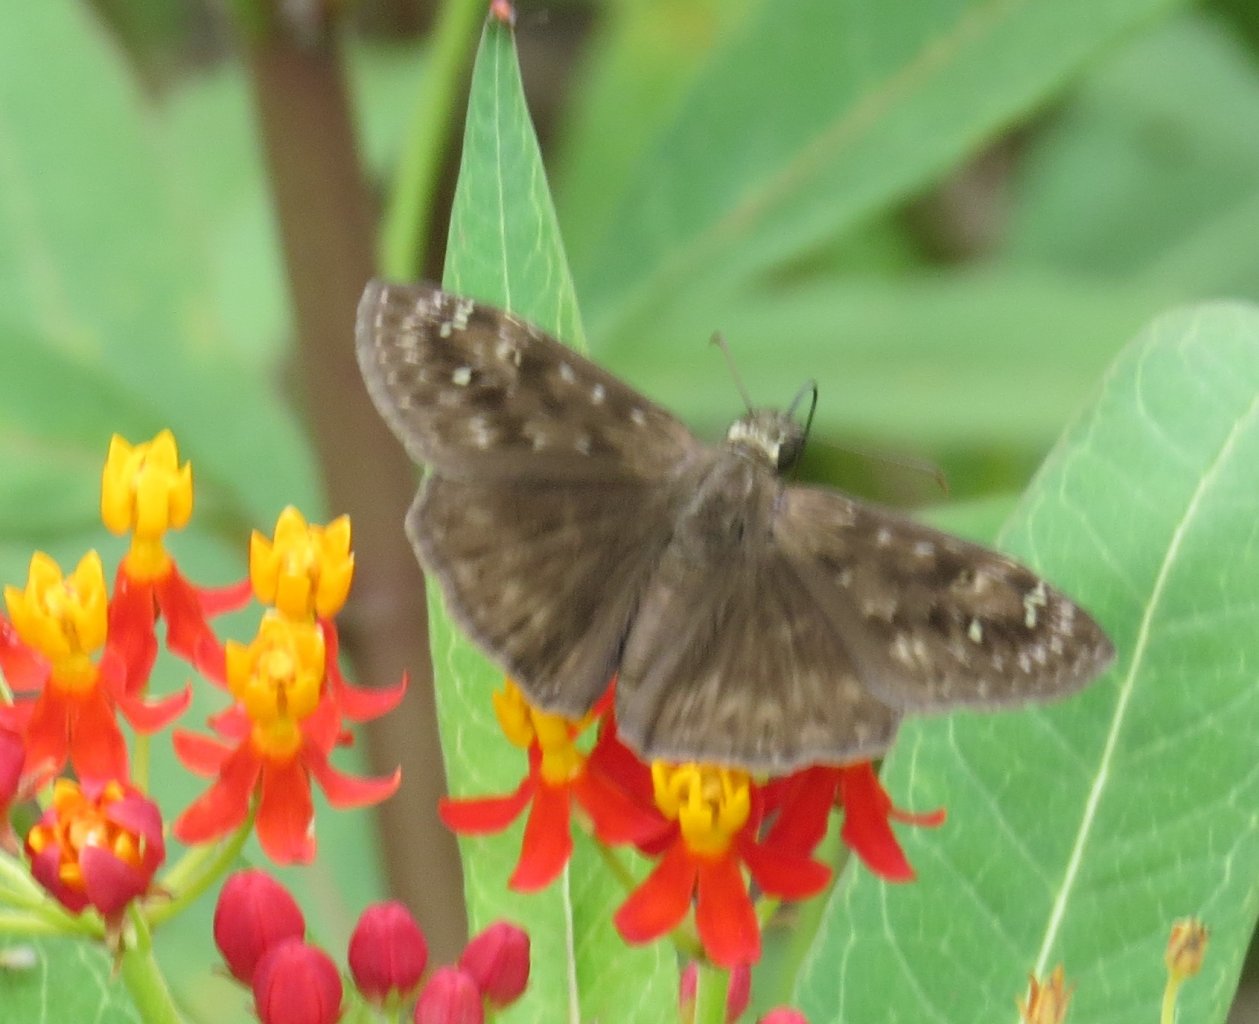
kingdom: Animalia
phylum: Arthropoda
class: Insecta
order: Lepidoptera
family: Hesperiidae
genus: Gesta
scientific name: Gesta
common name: Horace's Duskywing
